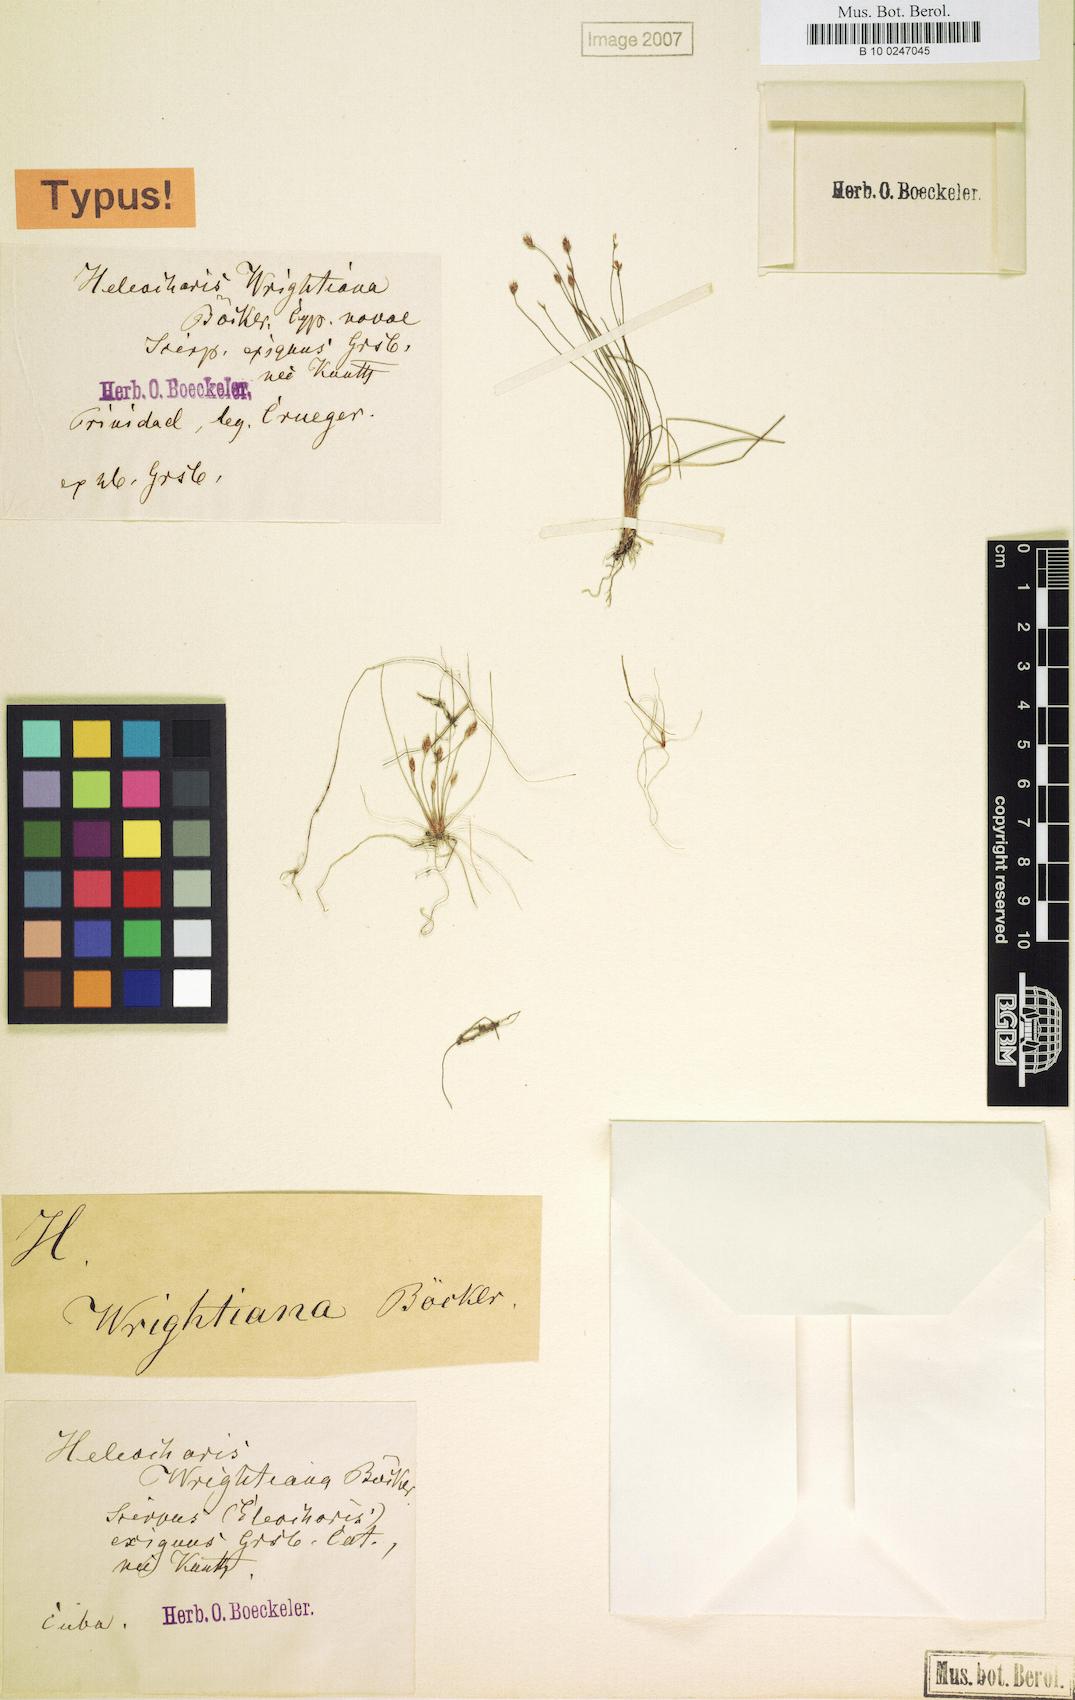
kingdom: Plantae
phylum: Tracheophyta
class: Liliopsida
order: Poales
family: Cyperaceae
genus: Eleocharis
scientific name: Eleocharis minima
